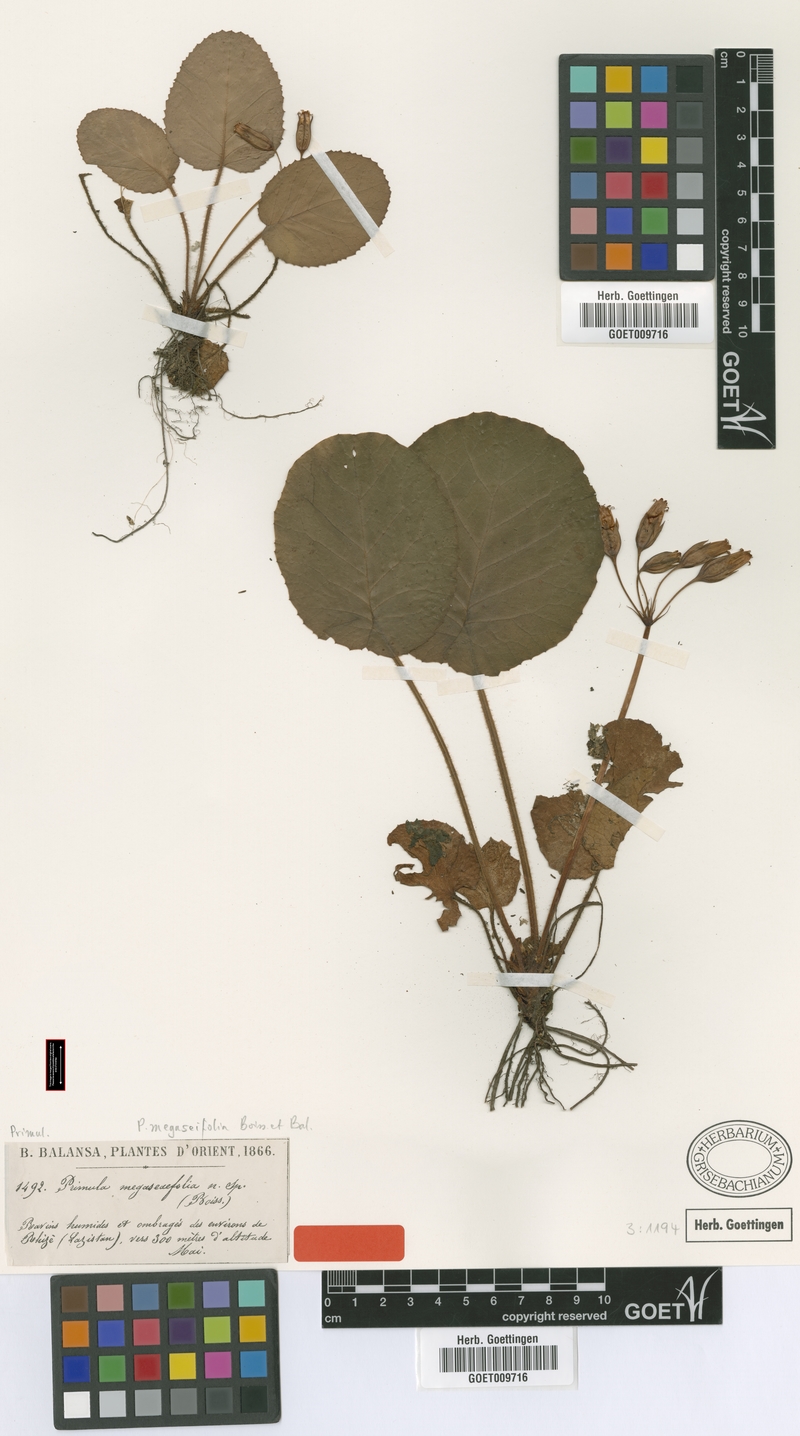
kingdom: Plantae
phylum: Tracheophyta
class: Magnoliopsida
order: Ericales
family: Primulaceae
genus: Primula
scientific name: Primula megaseifolia
